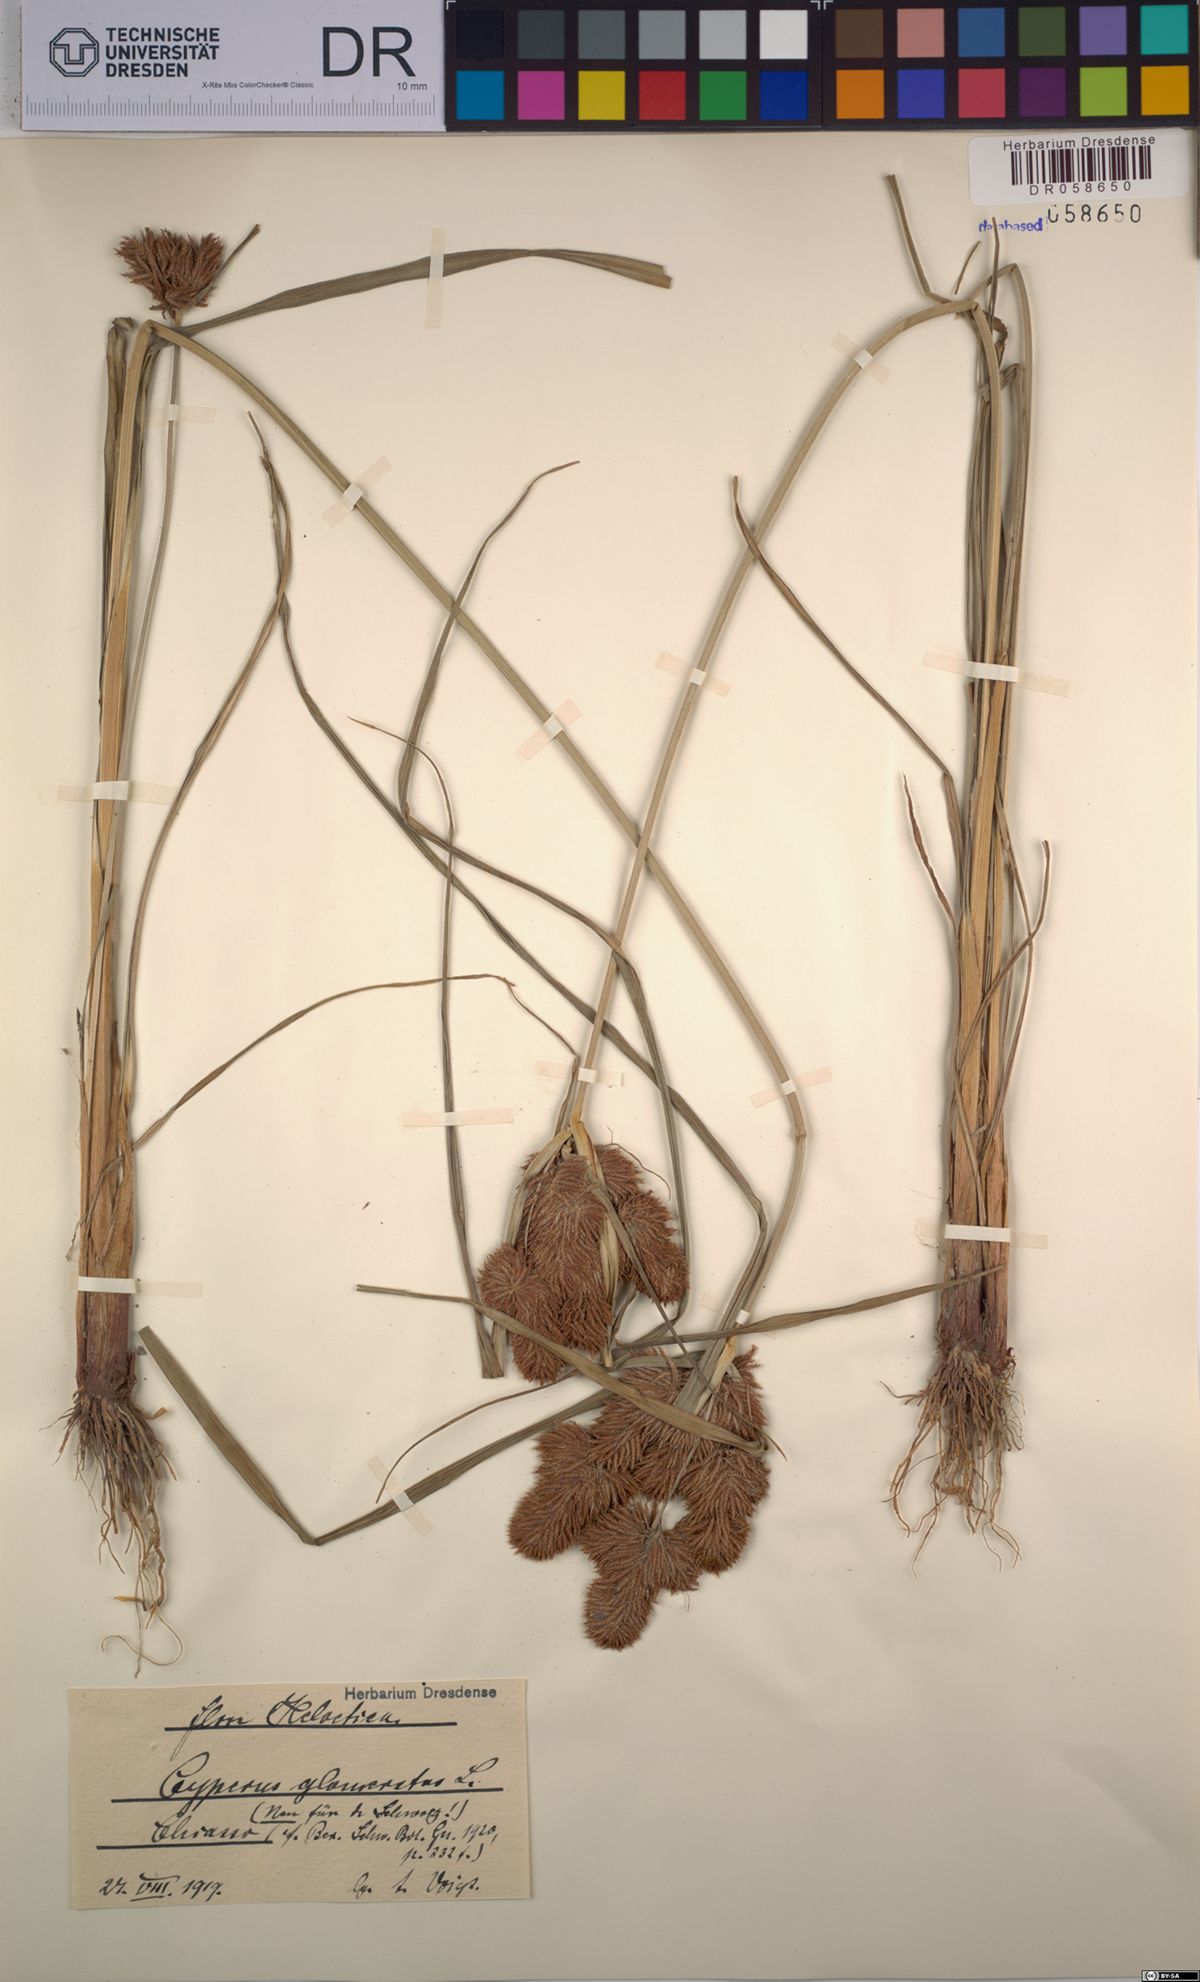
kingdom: Plantae
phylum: Tracheophyta
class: Liliopsida
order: Poales
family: Cyperaceae
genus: Cyperus
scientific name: Cyperus glomeratus
